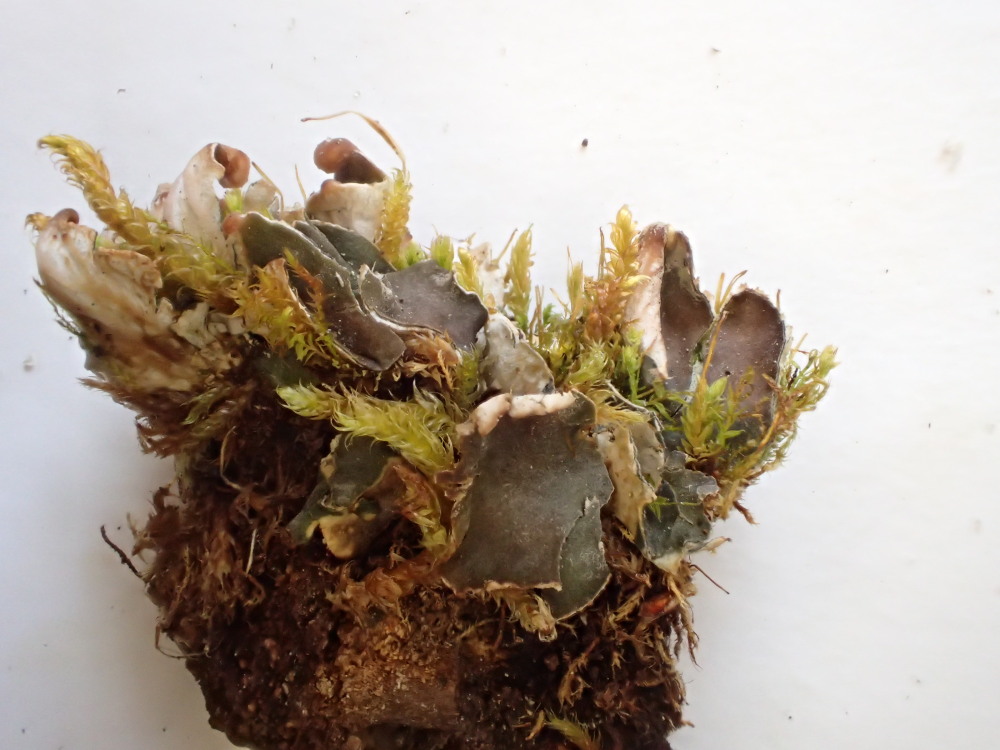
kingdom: Fungi
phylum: Ascomycota
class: Lecanoromycetes
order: Peltigerales
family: Peltigeraceae
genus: Peltigera
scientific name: Peltigera didactyla
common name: liden skjoldlav
